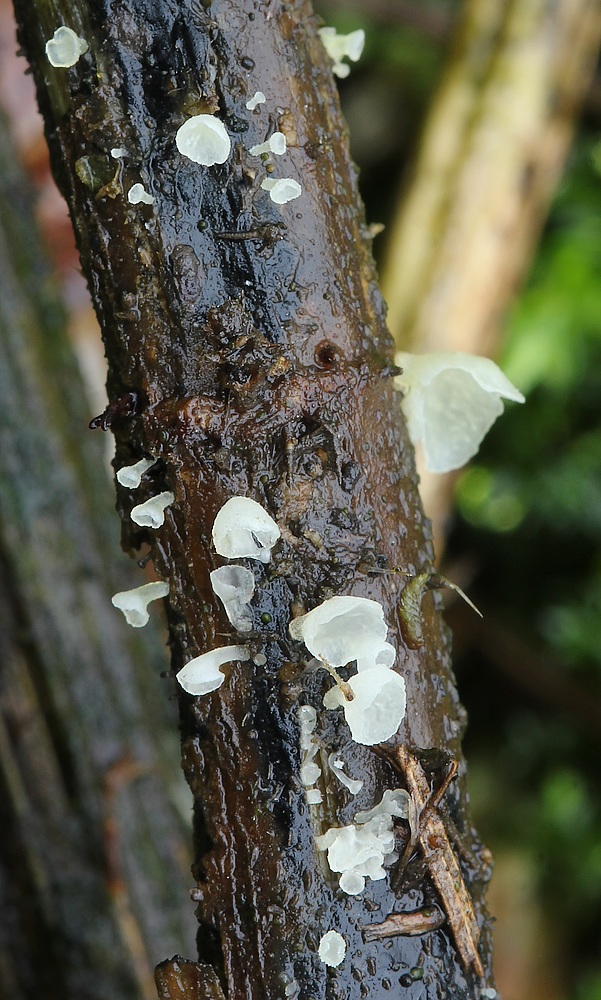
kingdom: Fungi
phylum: Basidiomycota
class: Agaricomycetes
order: Agaricales
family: Marasmiaceae
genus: Calyptella
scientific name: Calyptella capula
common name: hvidlig nældehue
